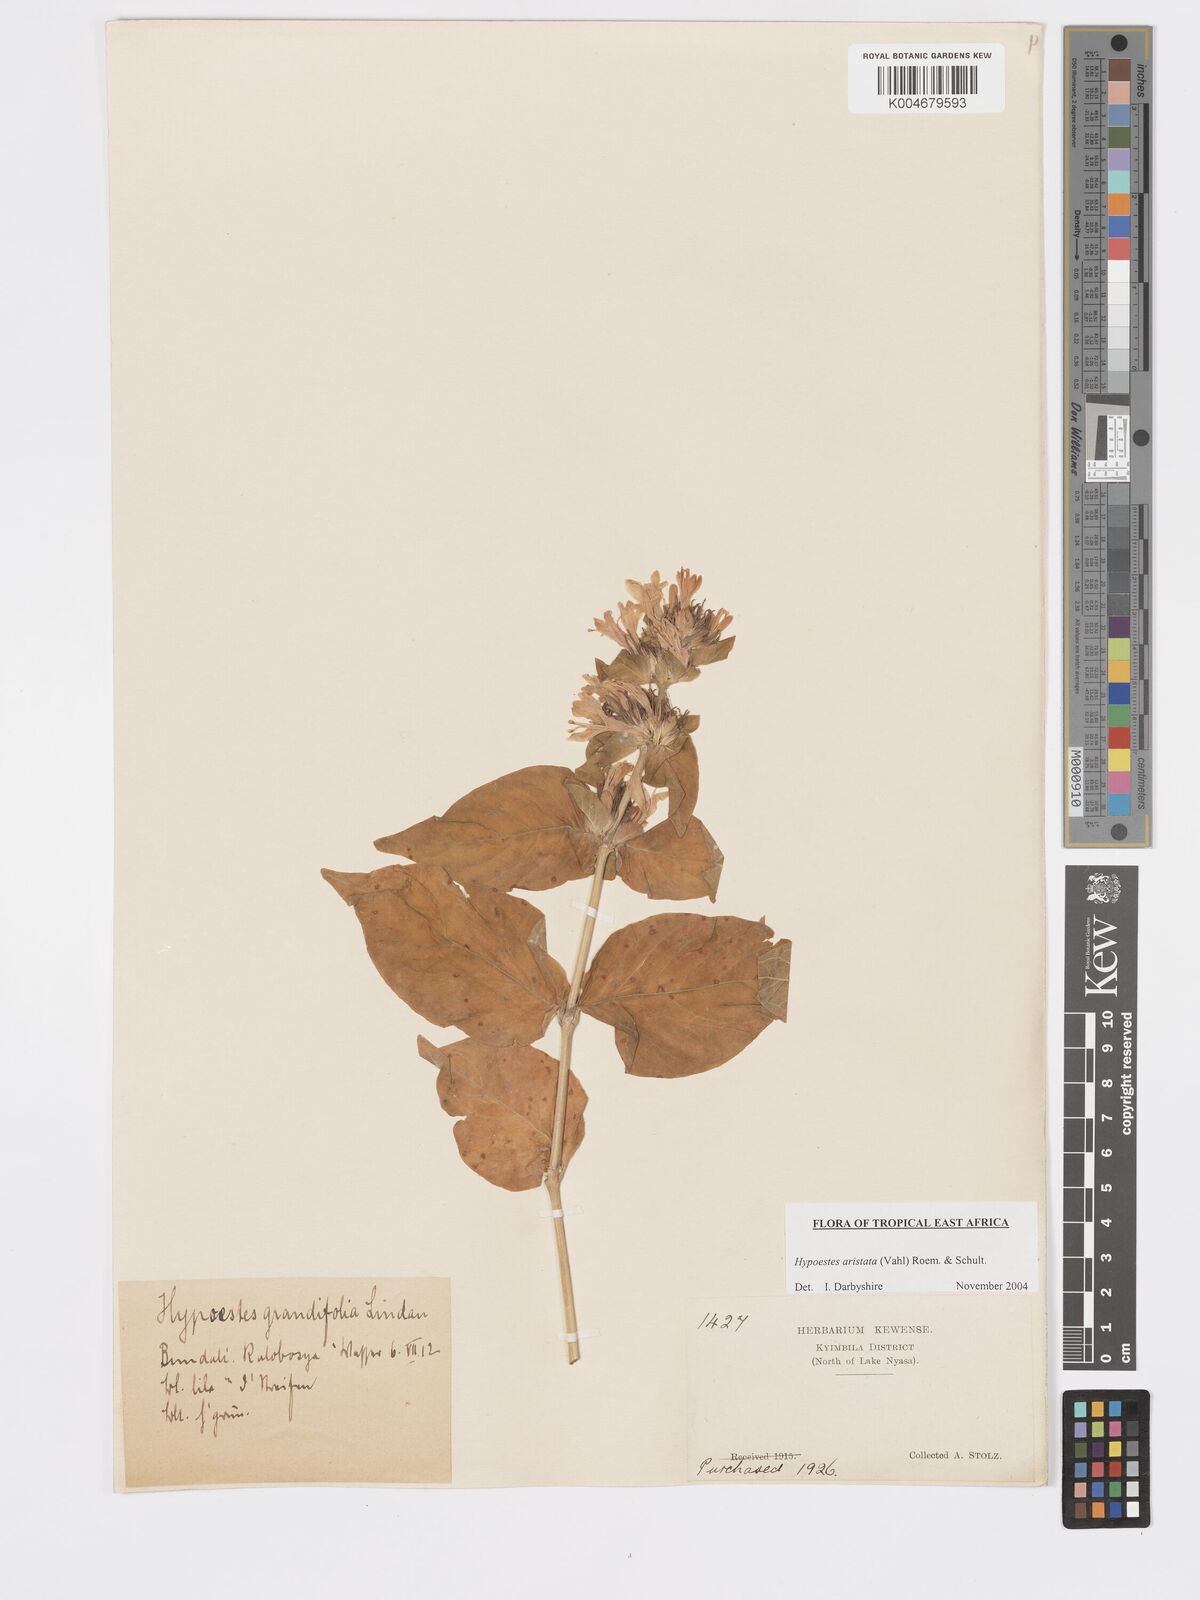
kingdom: Plantae
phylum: Tracheophyta
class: Magnoliopsida
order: Lamiales
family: Acanthaceae
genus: Hypoestes
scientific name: Hypoestes aristata
